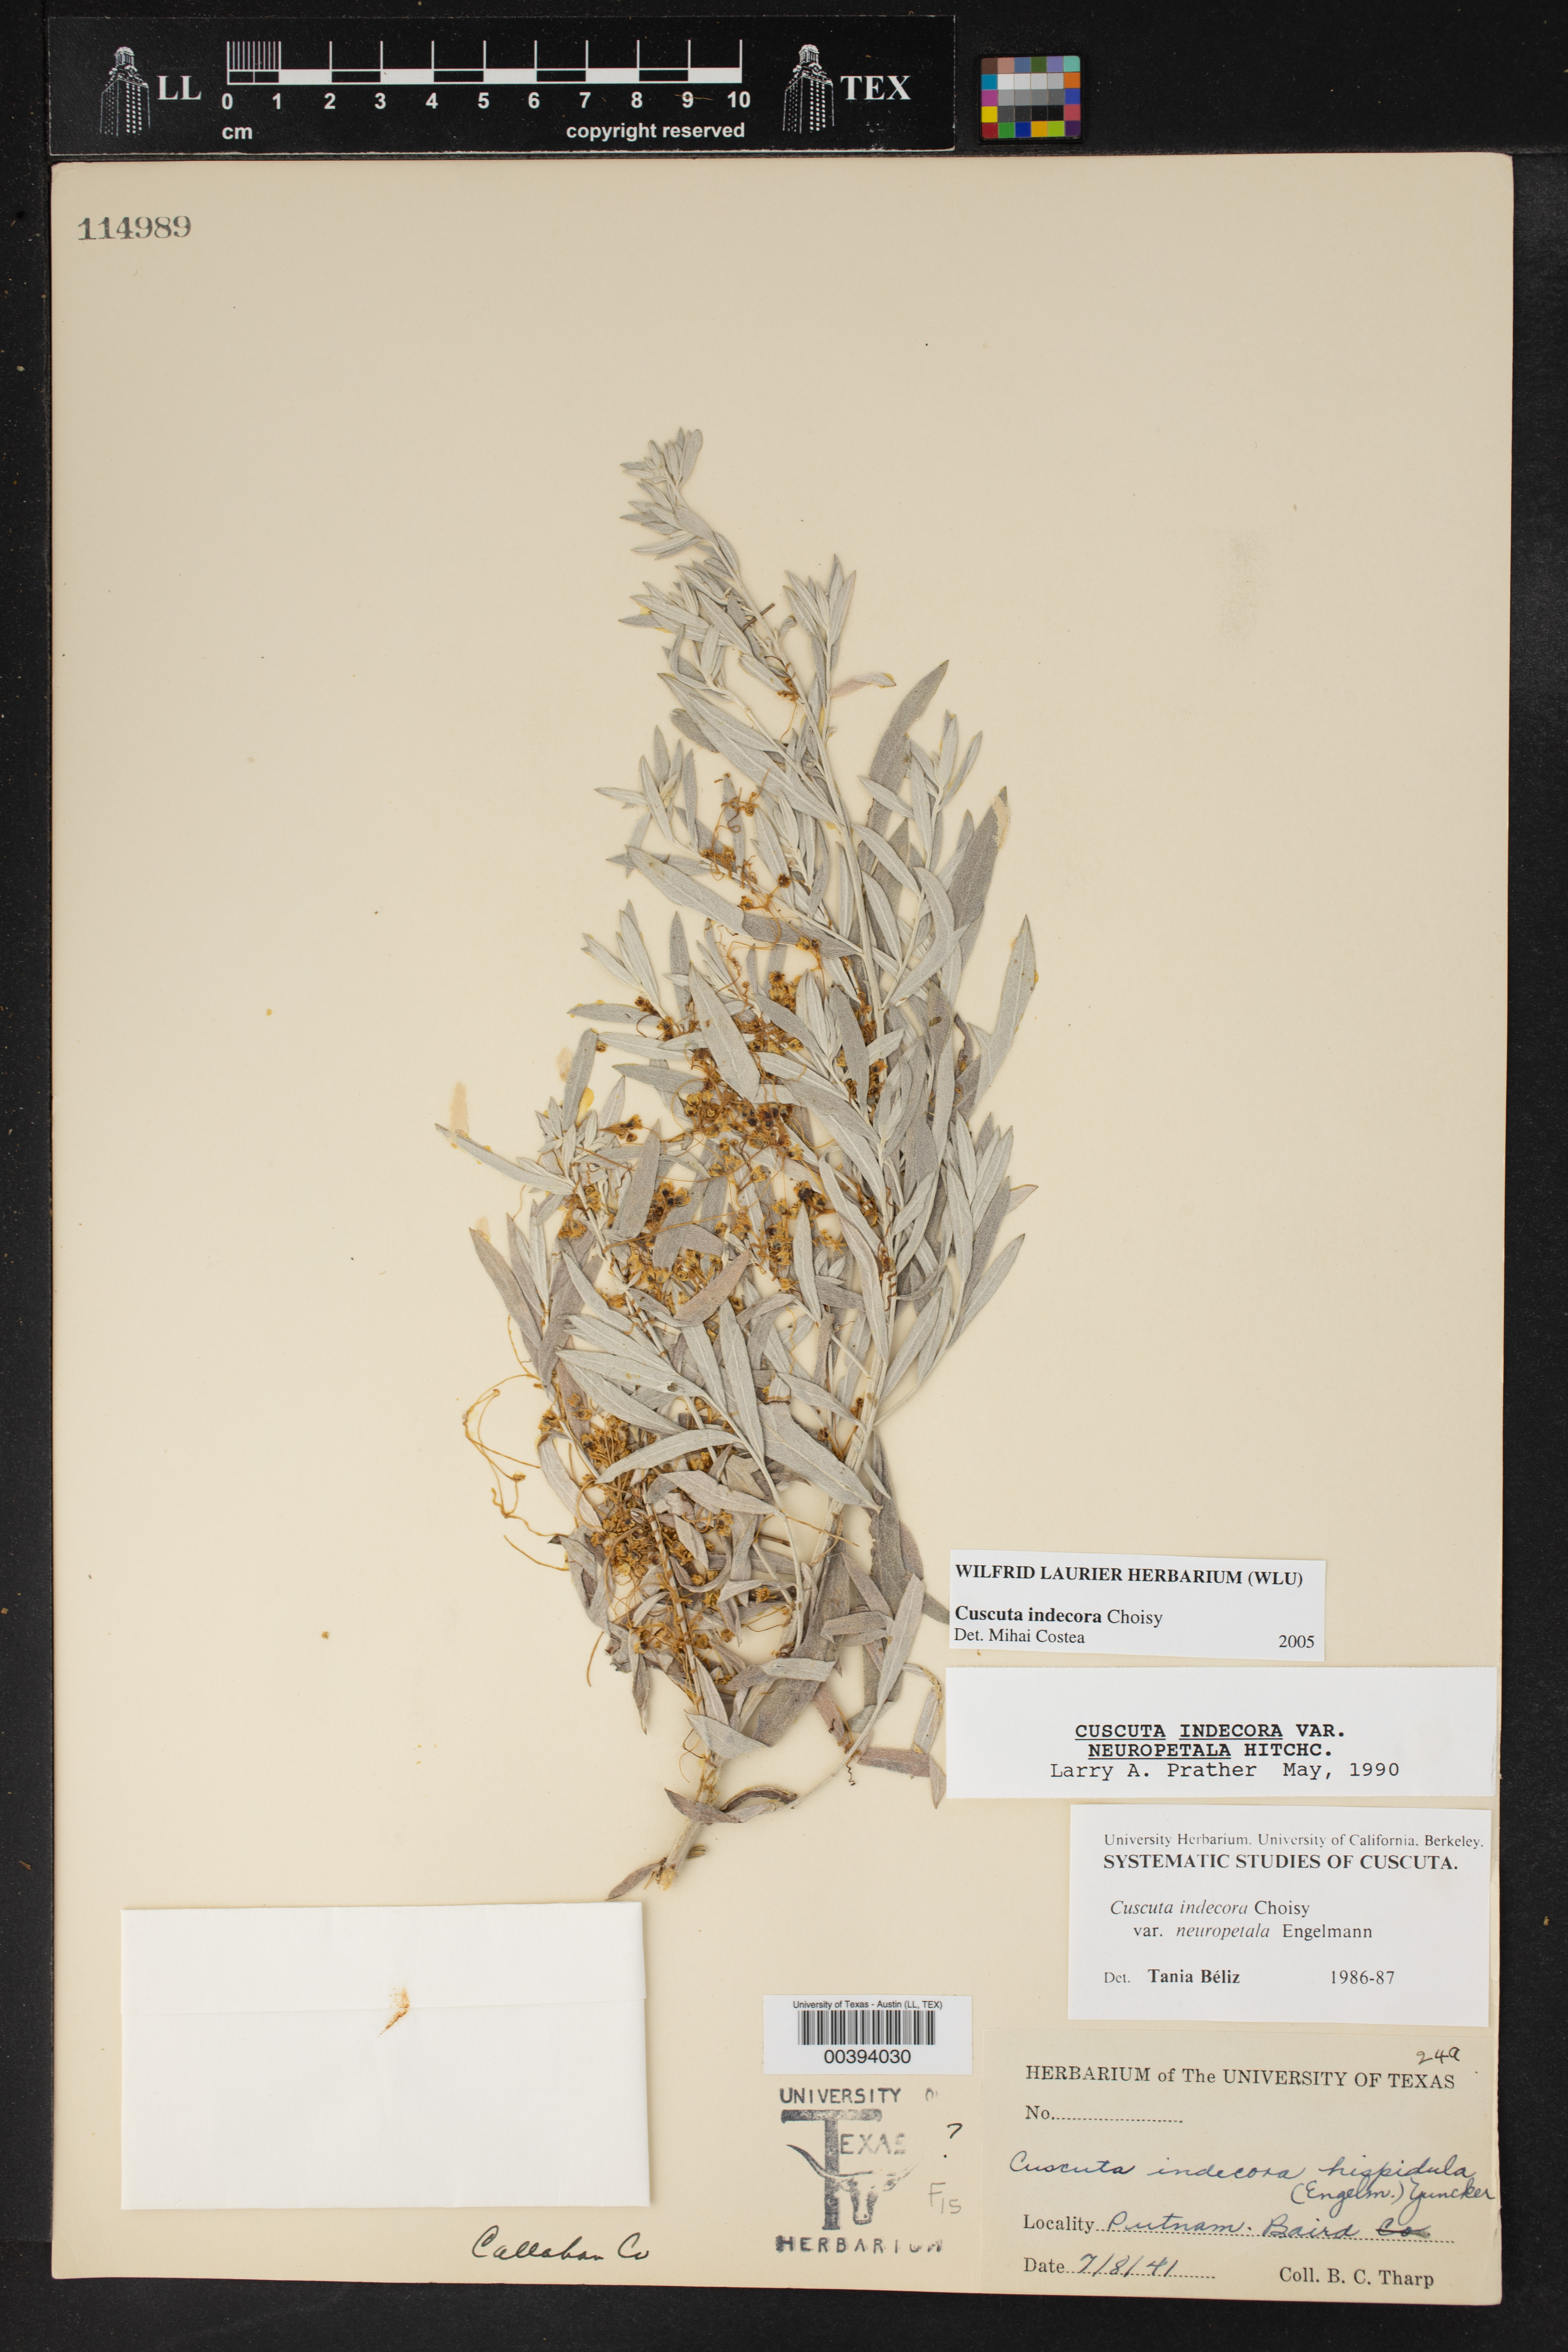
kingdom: Plantae
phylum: Tracheophyta
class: Magnoliopsida
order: Solanales
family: Convolvulaceae
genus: Cuscuta
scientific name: Cuscuta indecora
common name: Large-seed dodder
